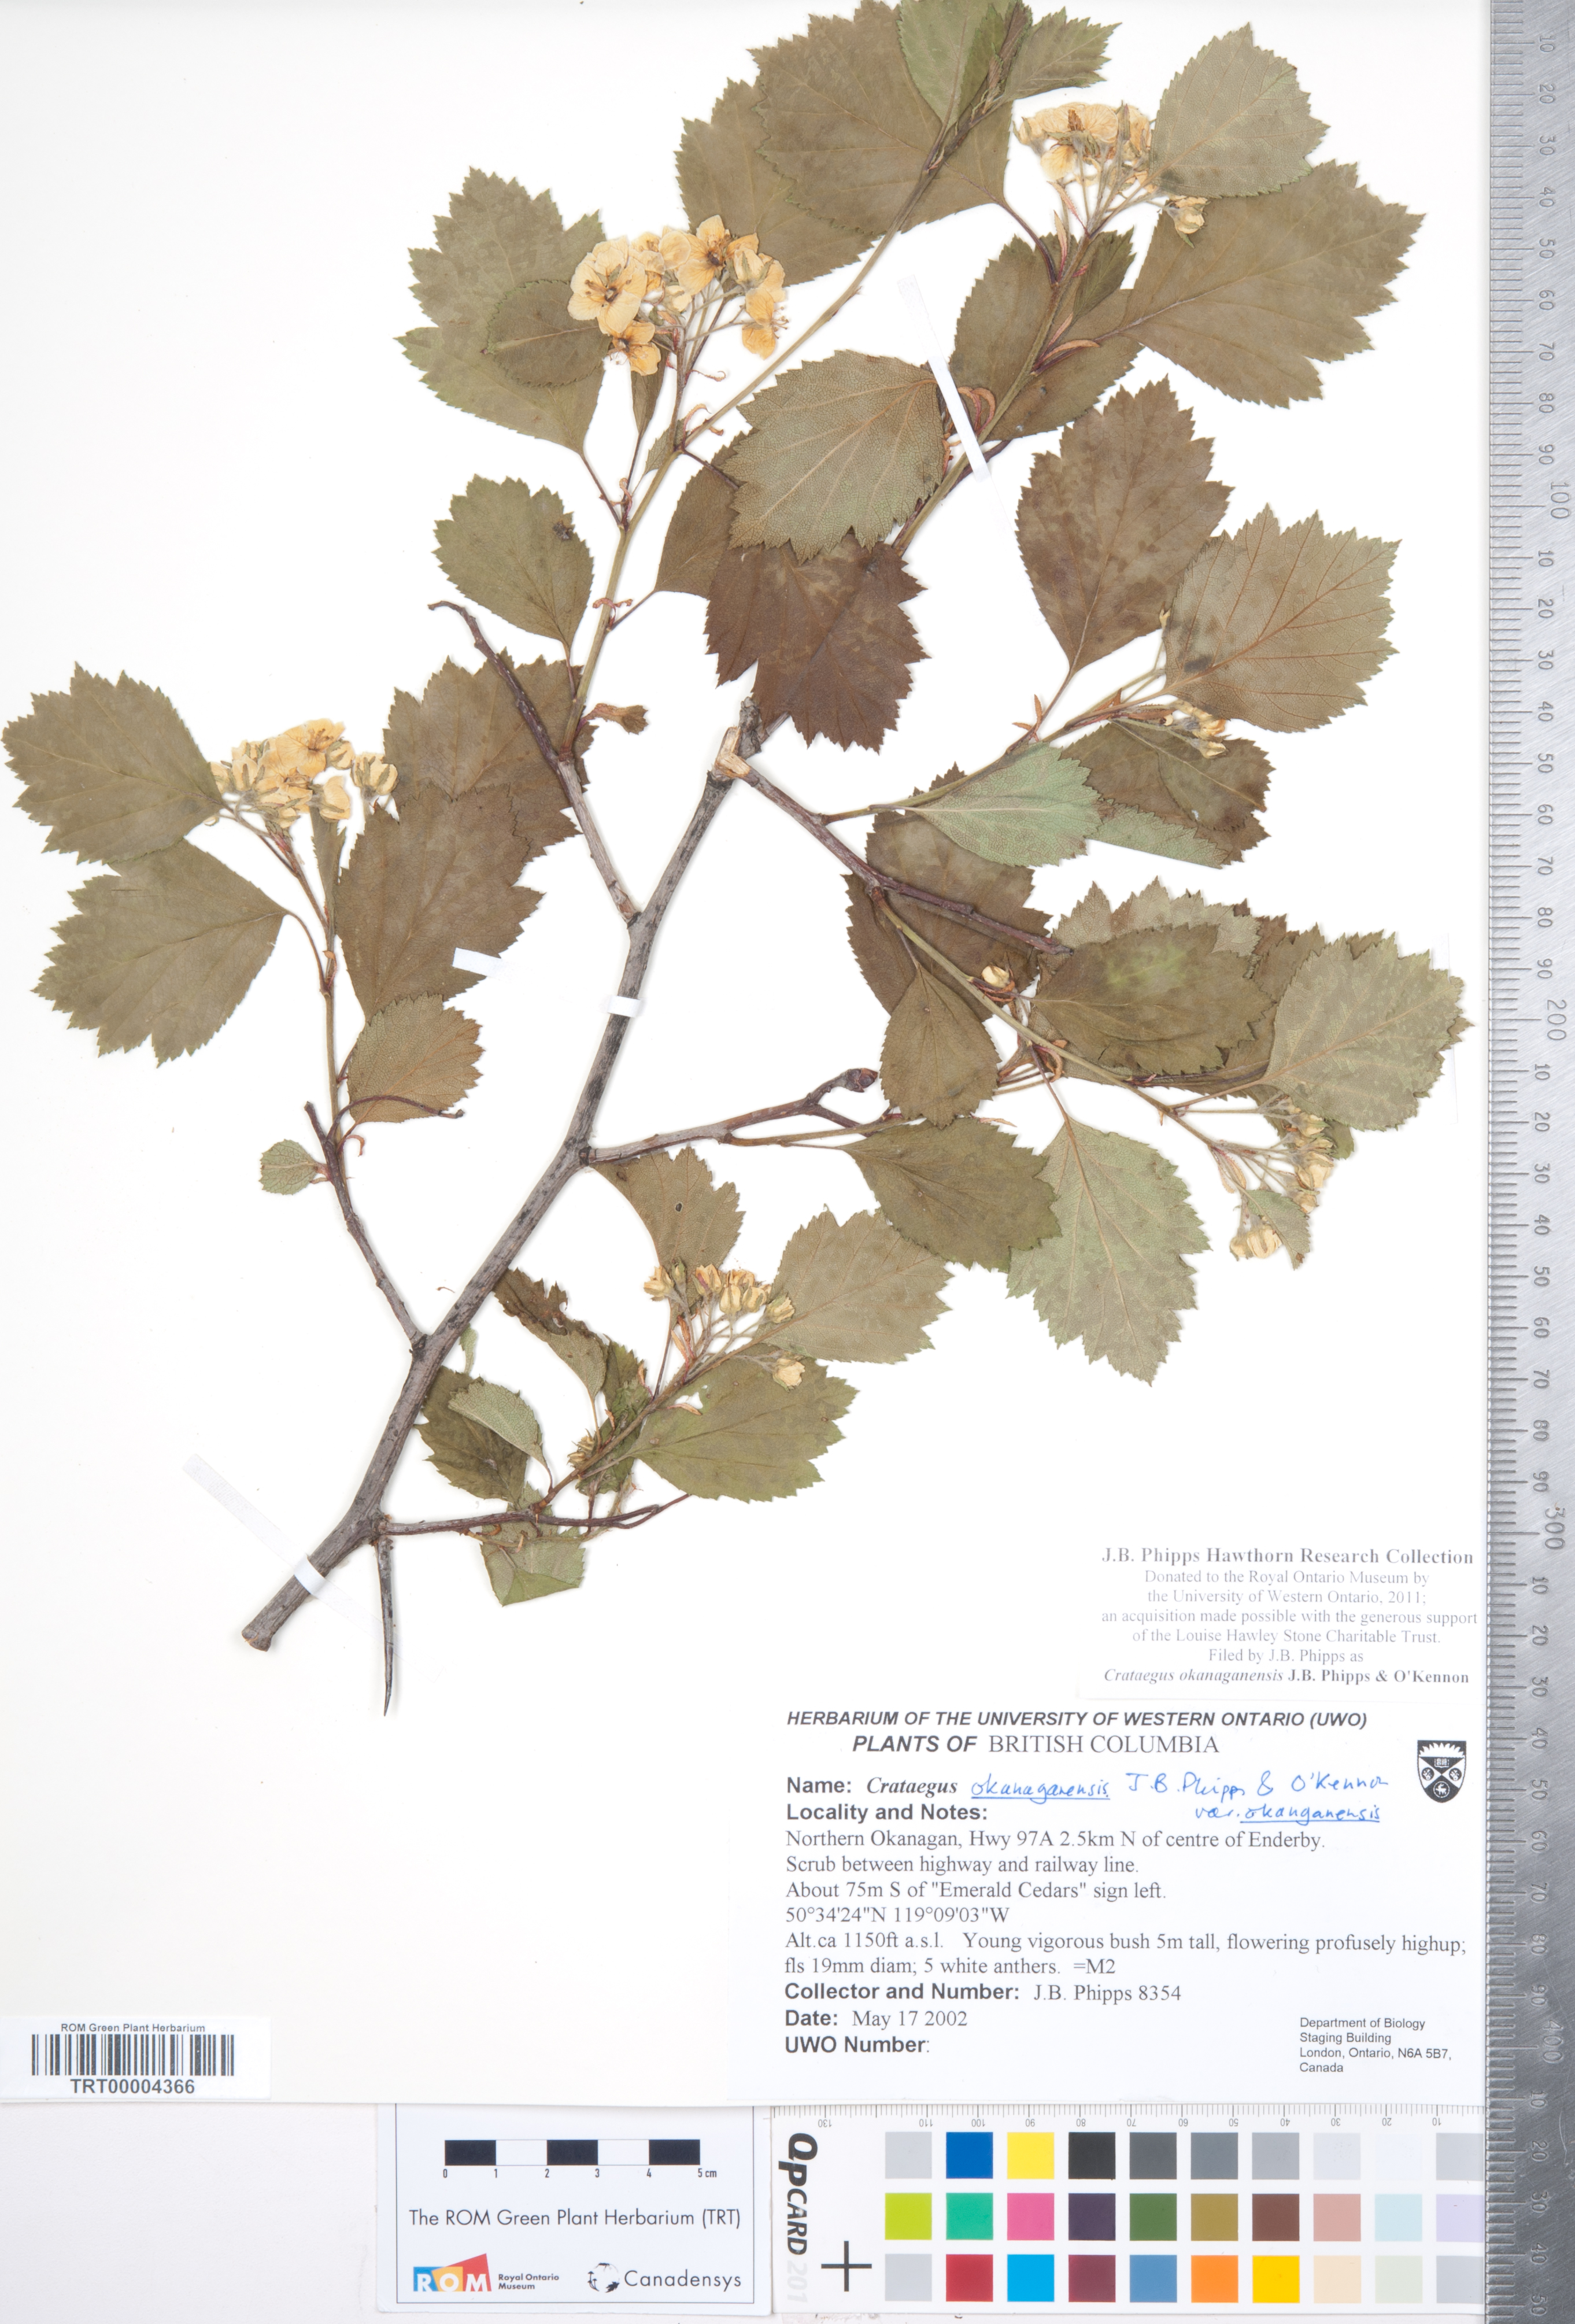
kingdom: Plantae
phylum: Tracheophyta
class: Magnoliopsida
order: Rosales
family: Rosaceae
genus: Crataegus
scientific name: Crataegus okanaganensis
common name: Okanagan valley hawthorn
